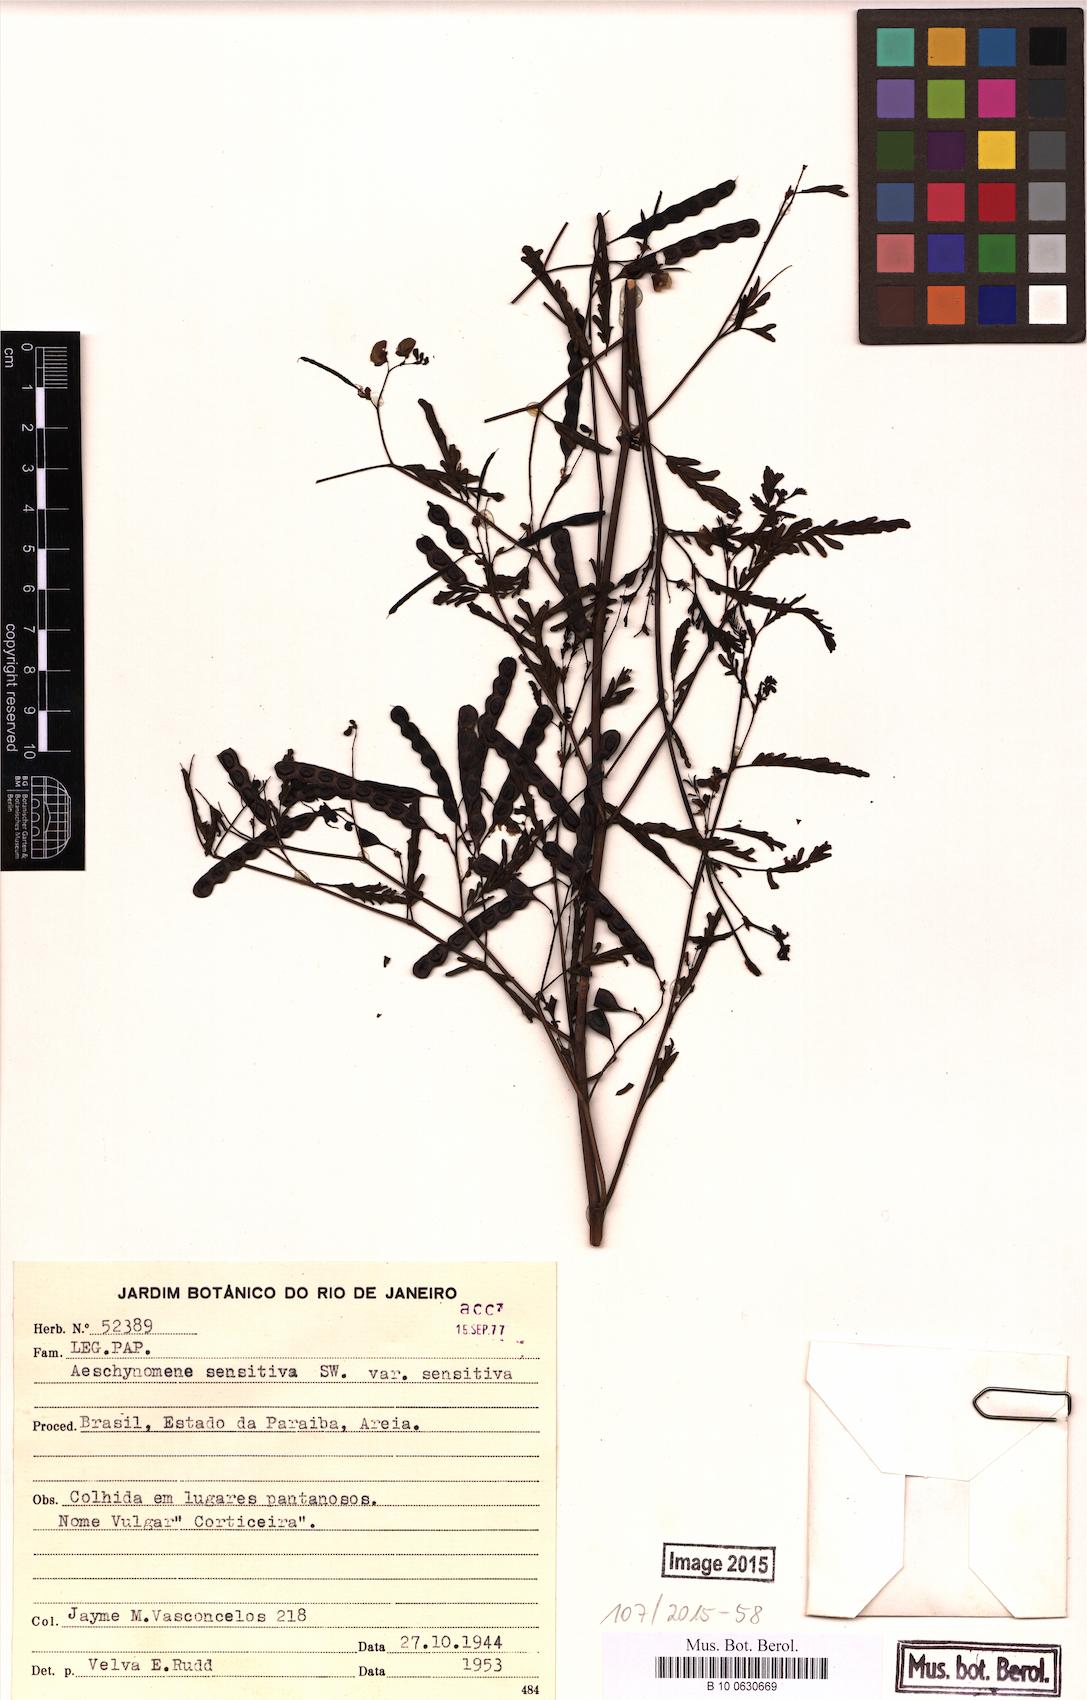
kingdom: Plantae
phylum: Tracheophyta
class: Magnoliopsida
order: Fabales
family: Fabaceae
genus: Aeschynomene
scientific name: Aeschynomene sensitiva
